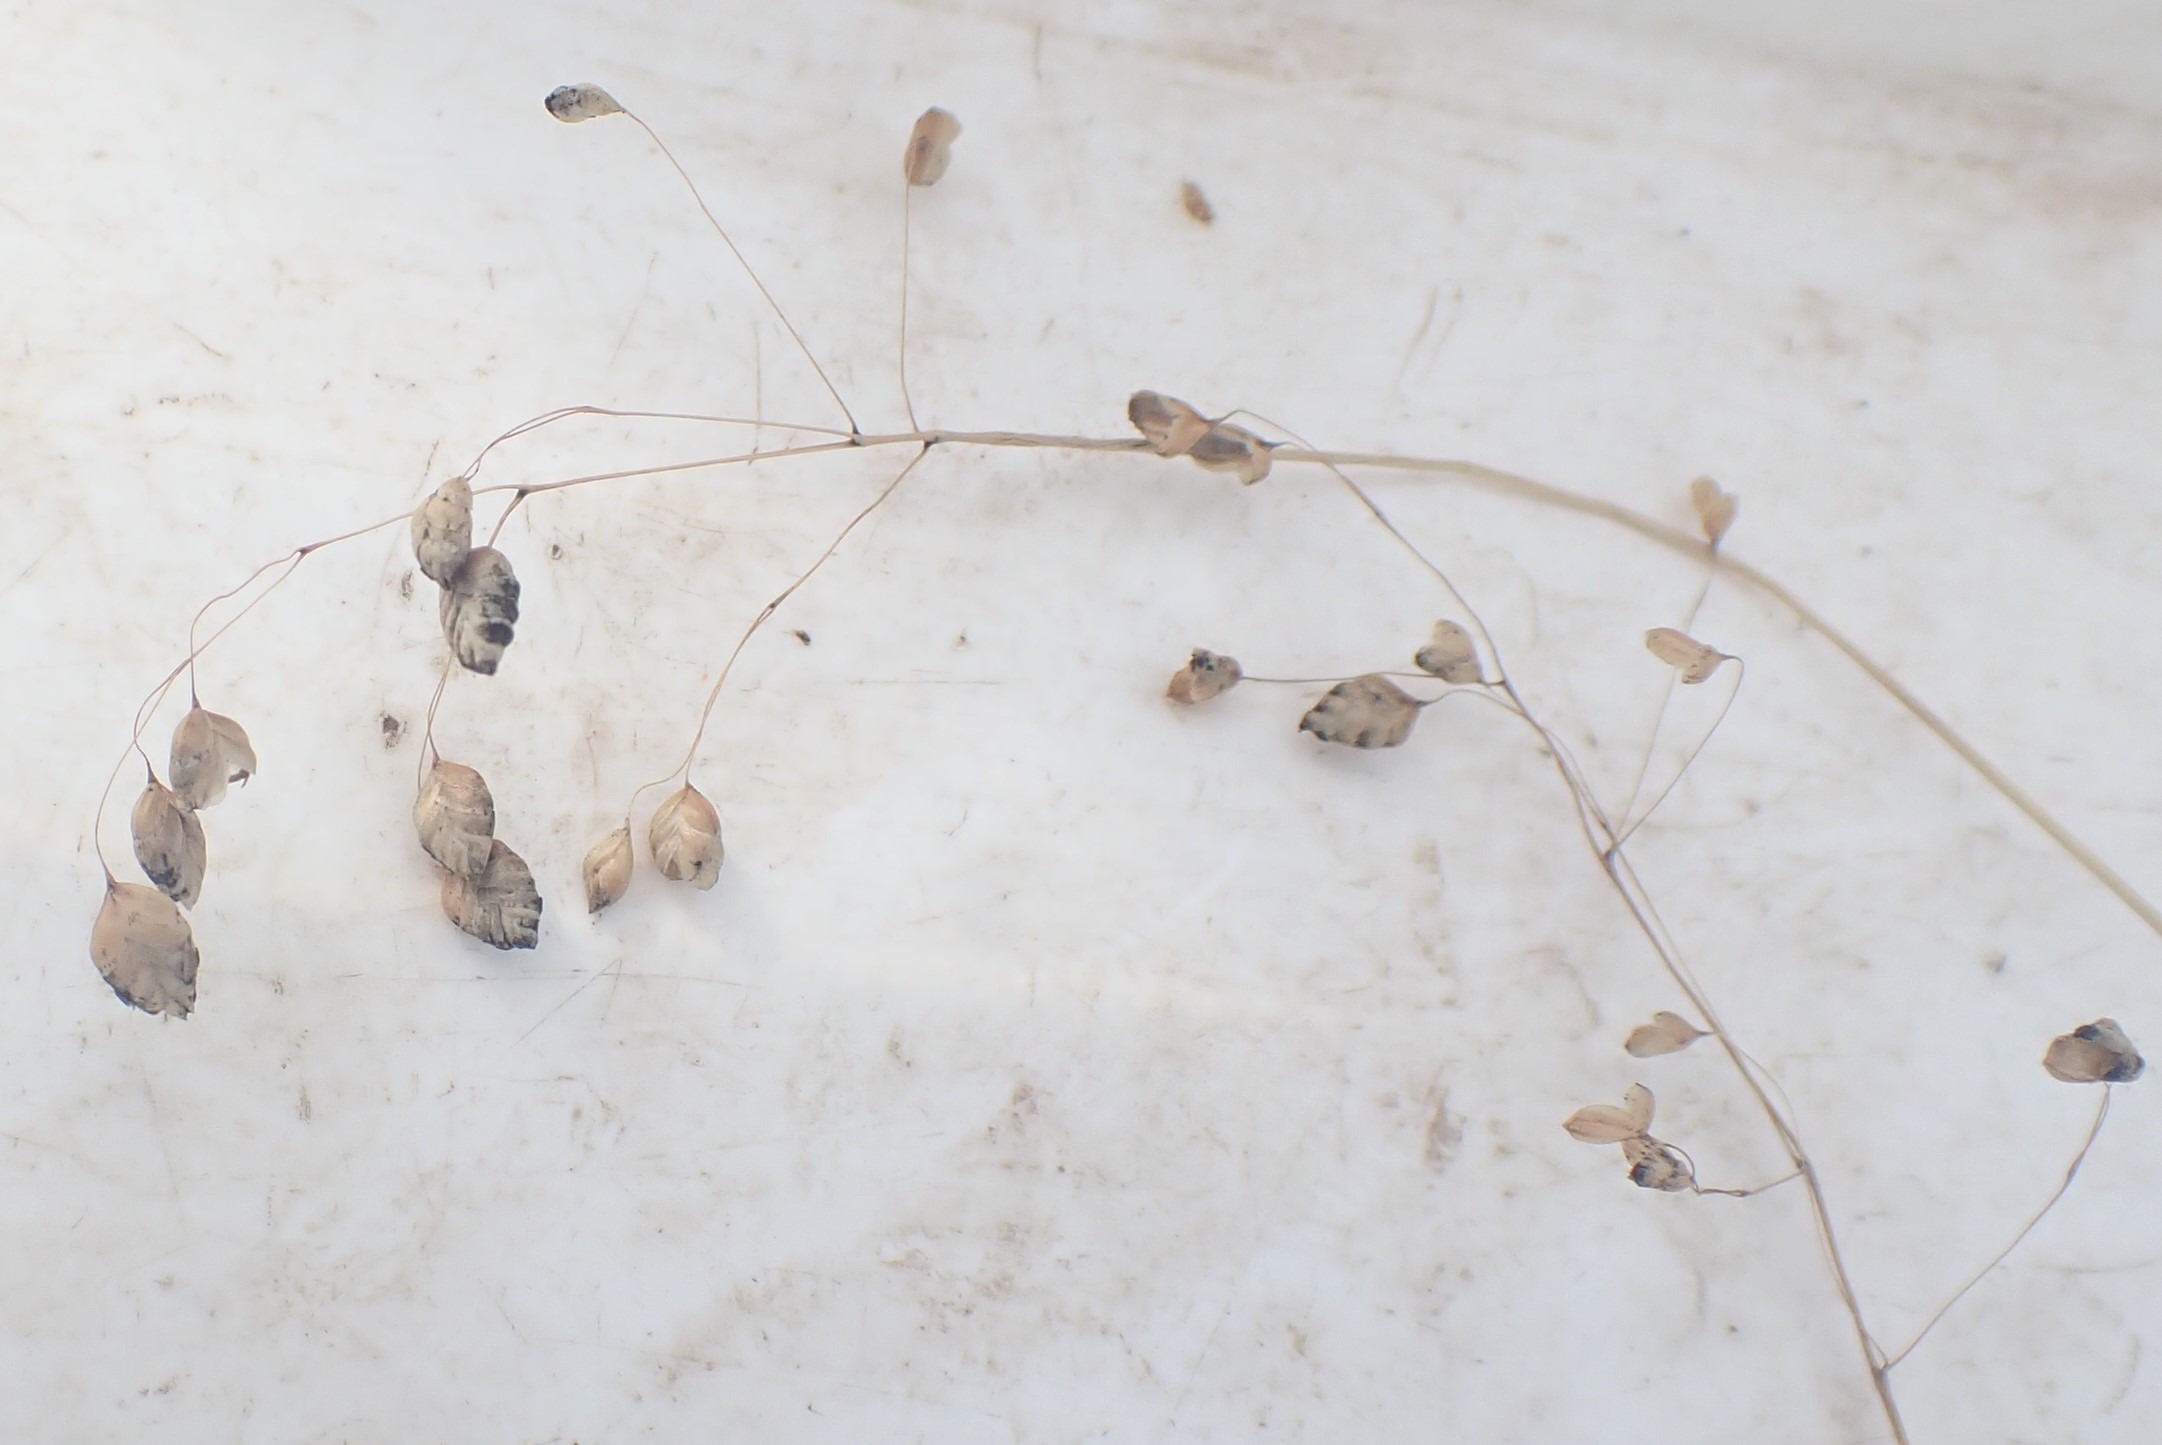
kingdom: Plantae
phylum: Tracheophyta
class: Liliopsida
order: Poales
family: Poaceae
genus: Briza
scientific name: Briza media
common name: Hjertegræs
